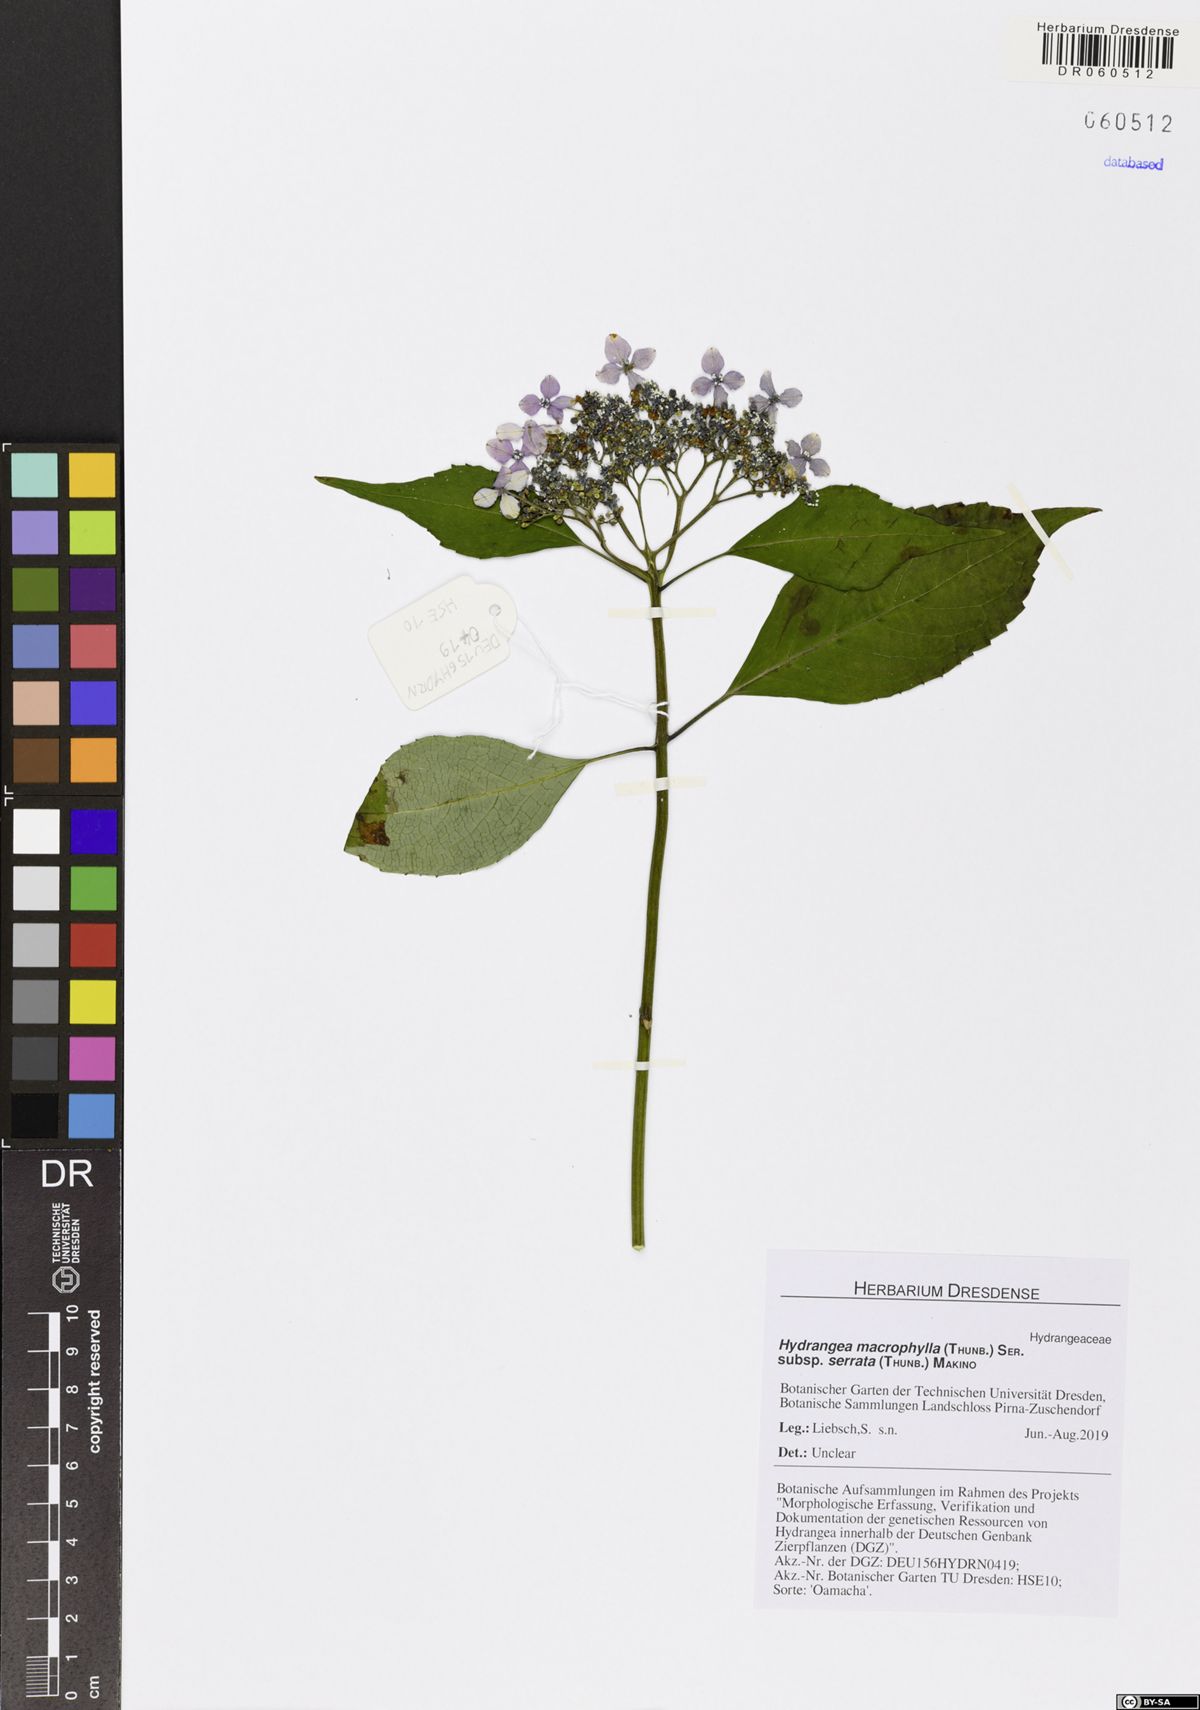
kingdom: Plantae
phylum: Tracheophyta
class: Magnoliopsida
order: Cornales
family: Hydrangeaceae
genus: Hydrangea
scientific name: Hydrangea serrata
